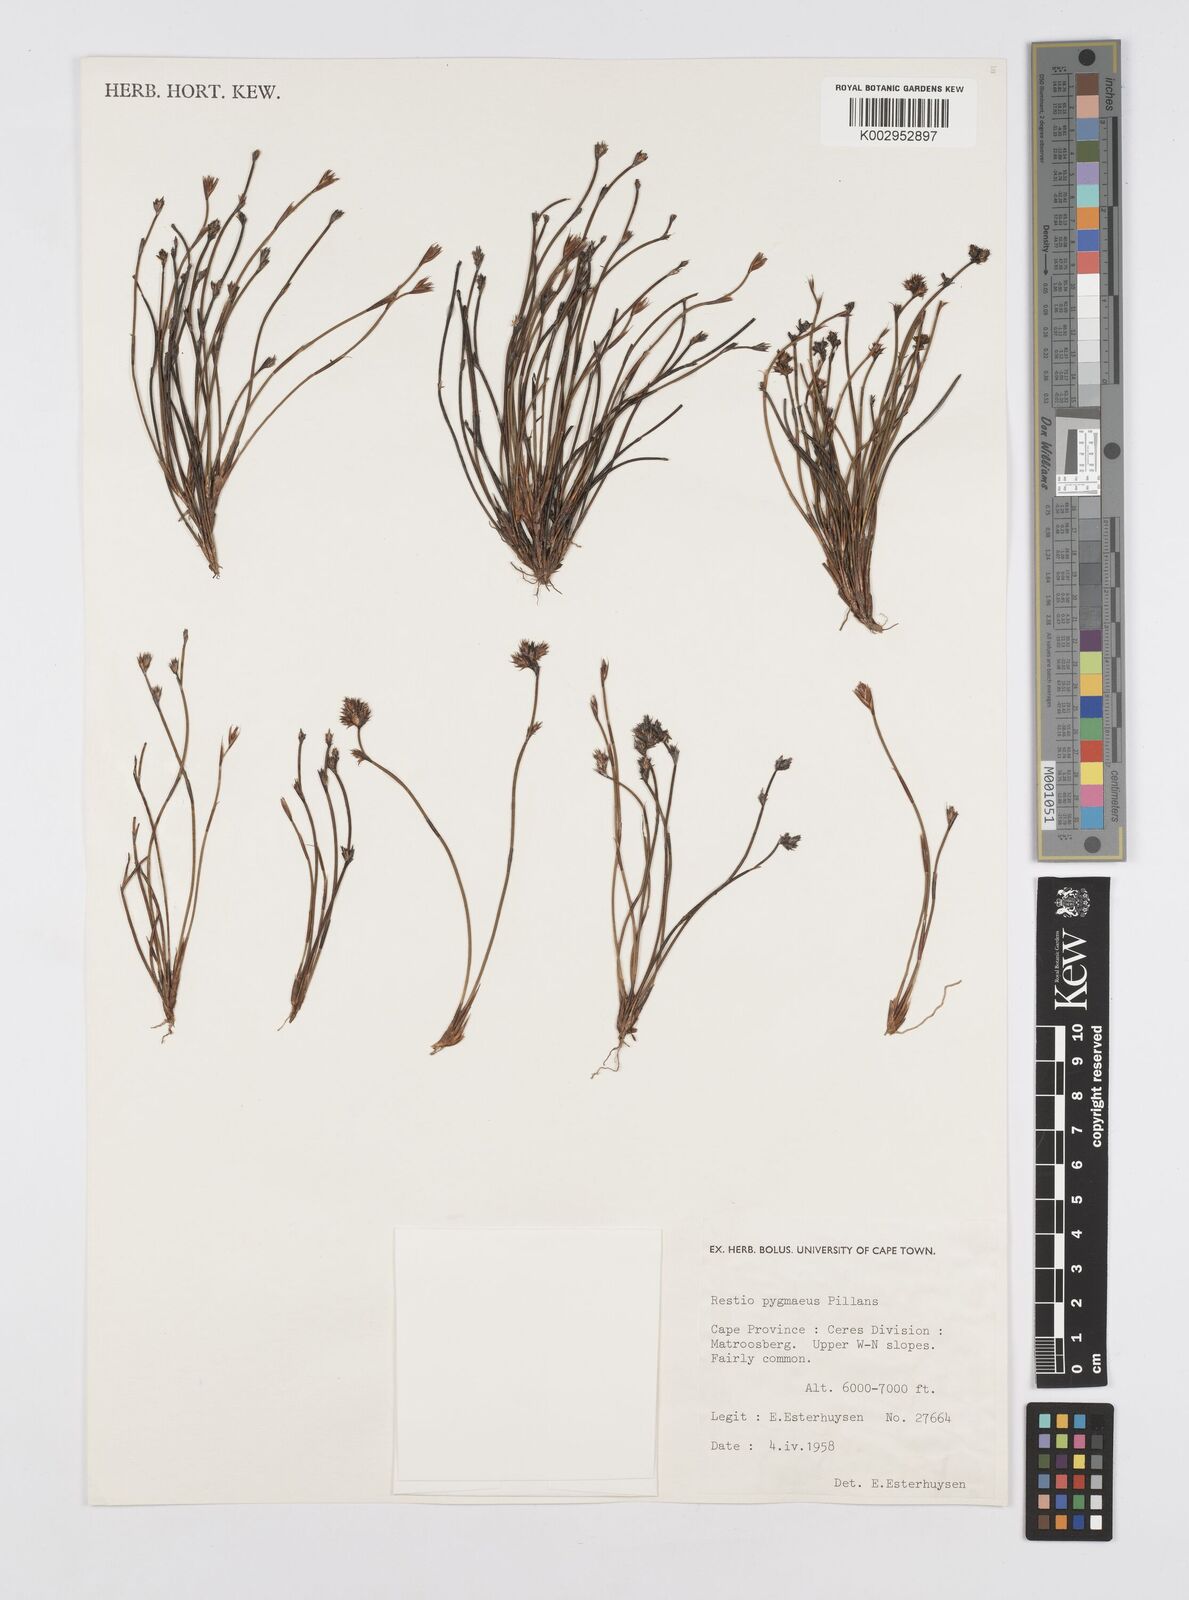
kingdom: Plantae
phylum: Tracheophyta
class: Liliopsida
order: Poales
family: Restionaceae
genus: Restio
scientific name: Restio pygmaeus
